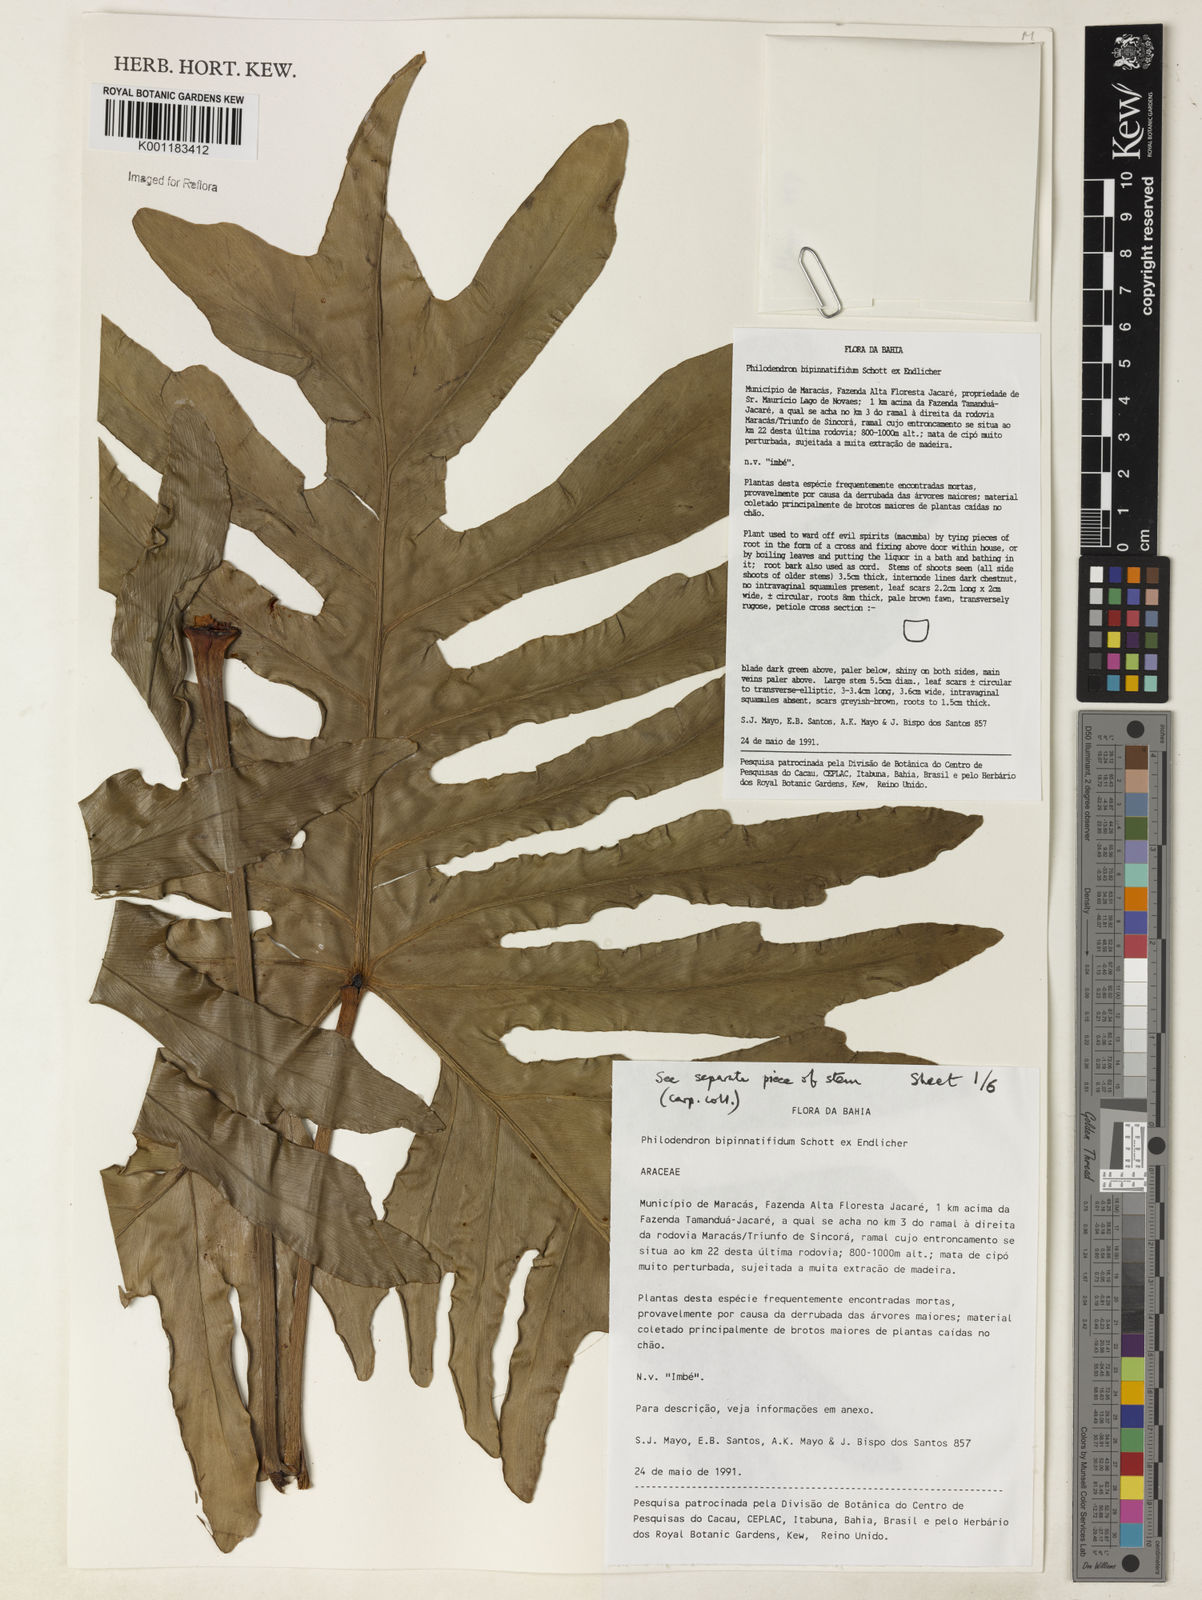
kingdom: Plantae
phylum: Tracheophyta
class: Liliopsida
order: Alismatales
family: Araceae
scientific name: Araceae
